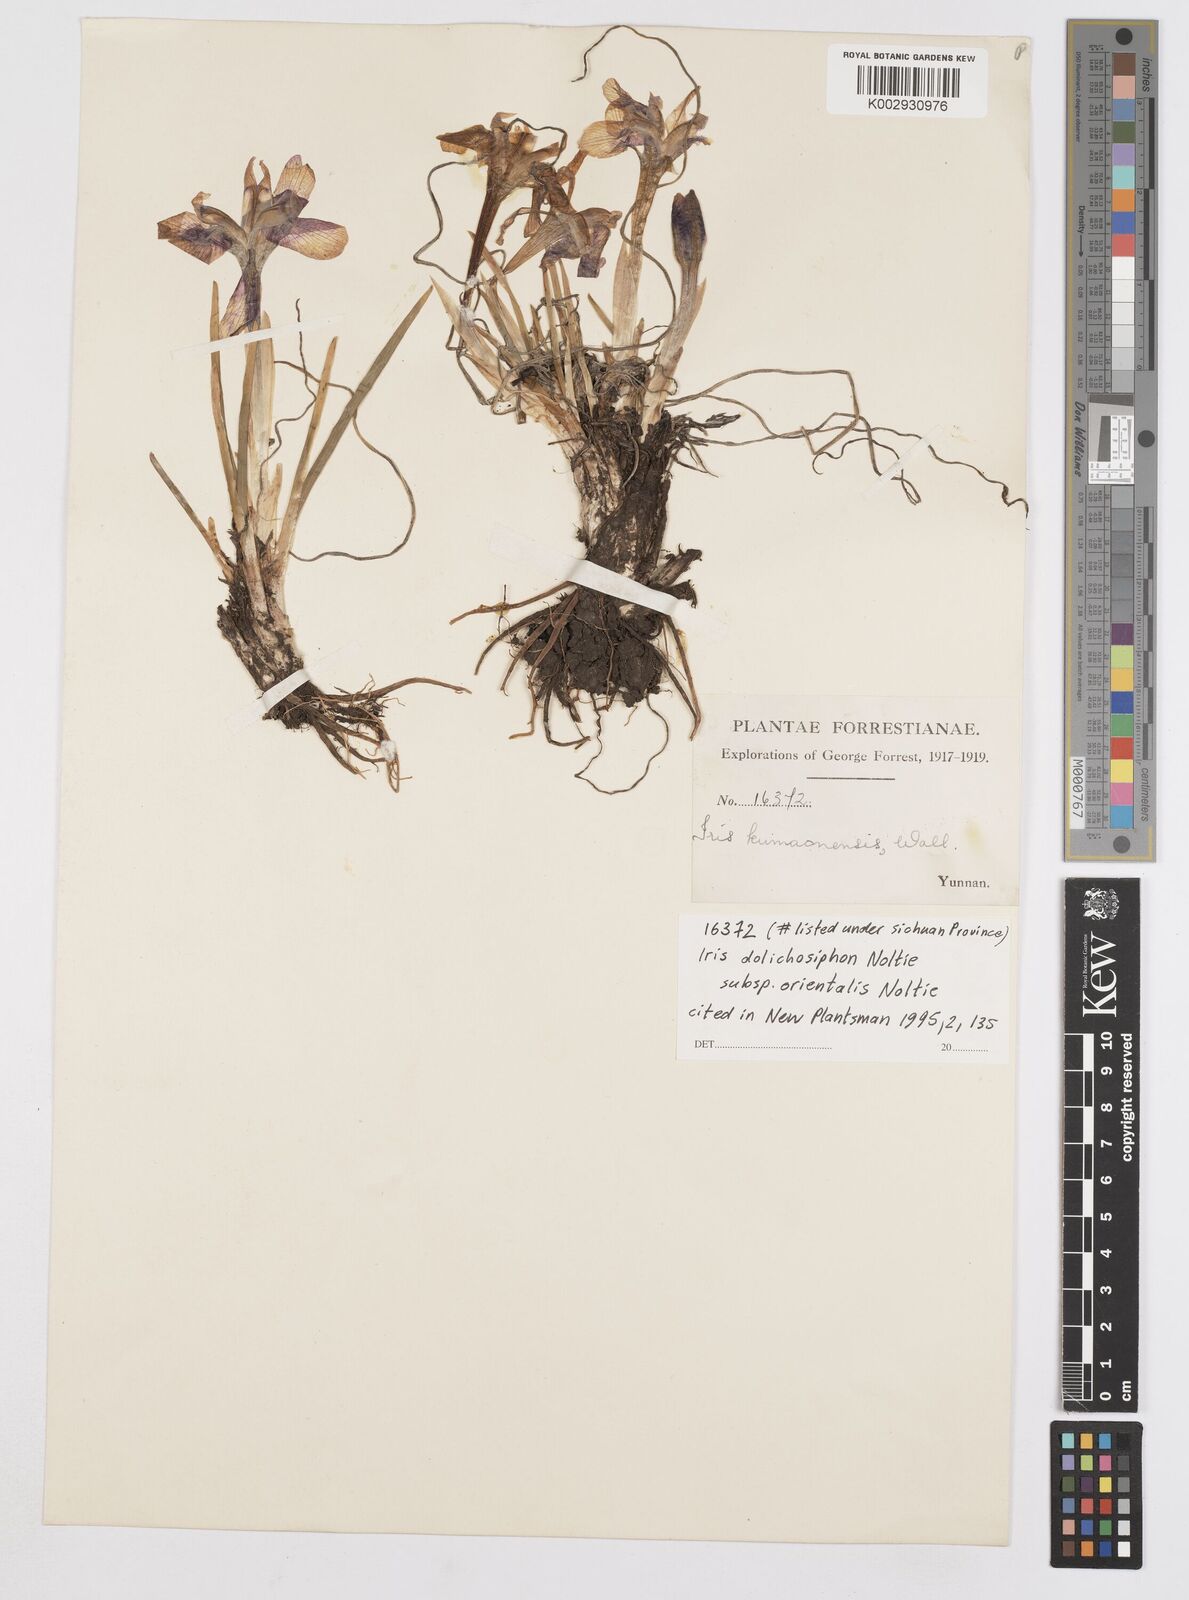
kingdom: Plantae
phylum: Tracheophyta
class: Liliopsida
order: Asparagales
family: Iridaceae
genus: Iris
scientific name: Iris dolichosiphon
